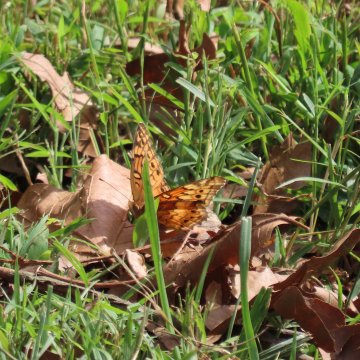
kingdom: Animalia
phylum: Arthropoda
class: Insecta
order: Lepidoptera
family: Nymphalidae
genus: Euptoieta
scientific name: Euptoieta claudia
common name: Variegated Fritillary
